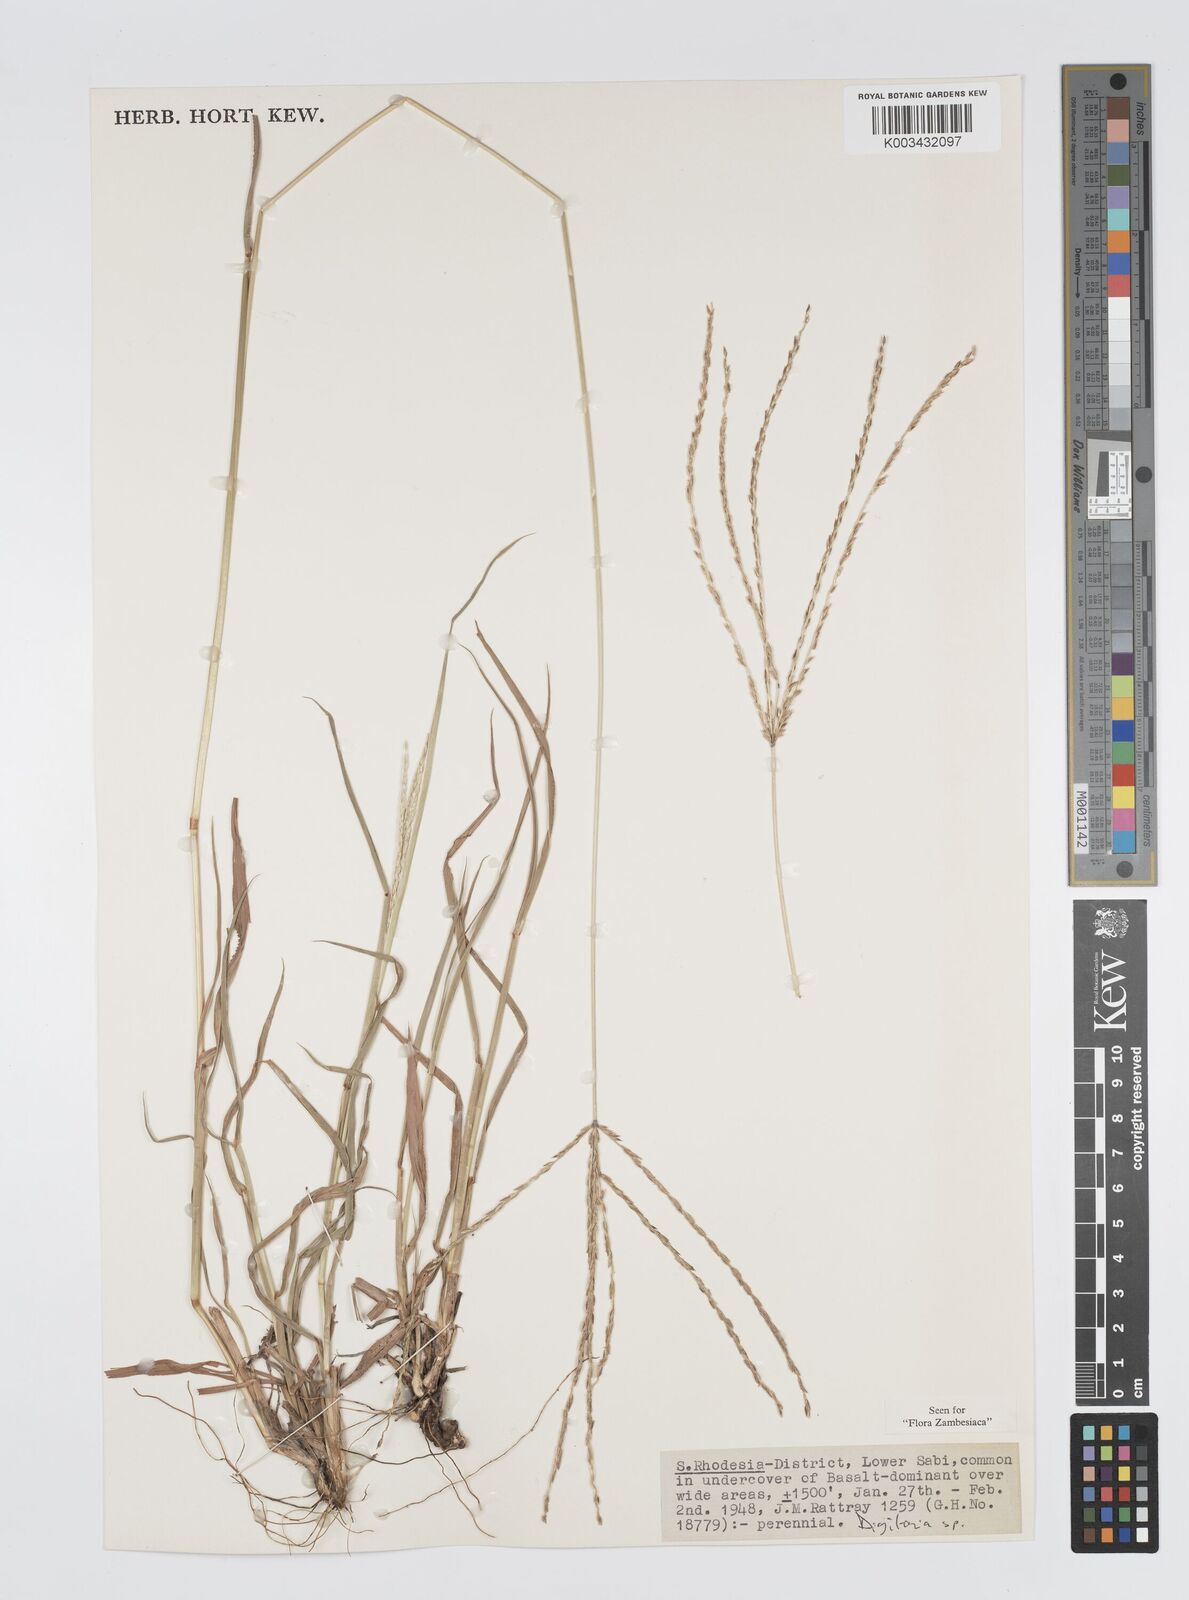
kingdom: Plantae
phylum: Tracheophyta
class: Liliopsida
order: Poales
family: Poaceae
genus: Digitaria
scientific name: Digitaria milanjiana
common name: Madagascar crabgrass
